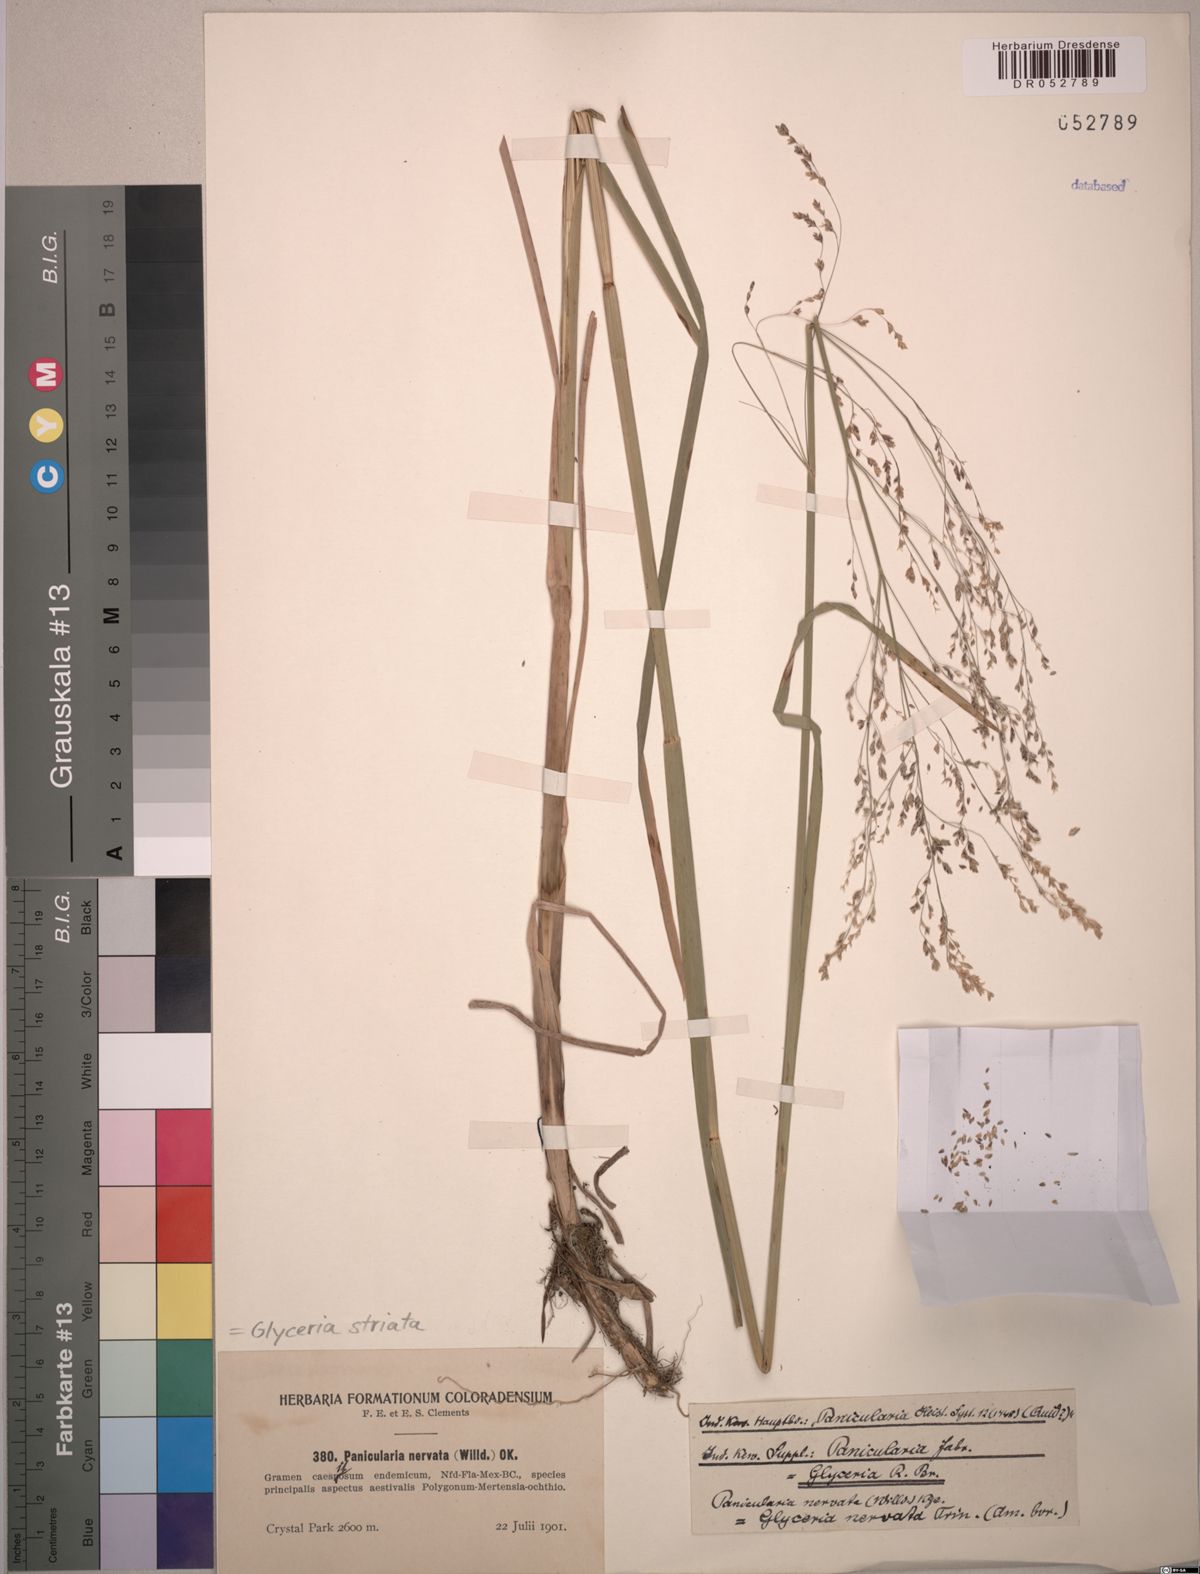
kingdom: Plantae
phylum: Tracheophyta
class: Liliopsida
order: Poales
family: Poaceae
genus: Glyceria
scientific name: Glyceria striata
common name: Fowl manna grass
